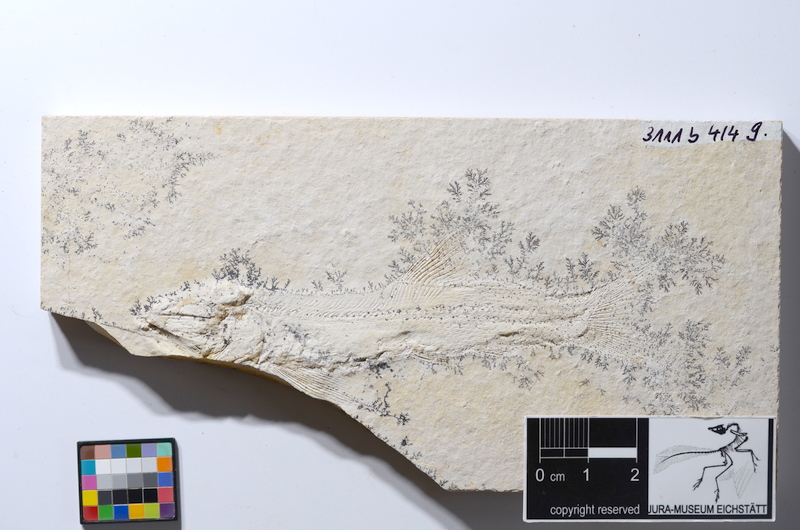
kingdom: Animalia
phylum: Chordata
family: Ophiopsiellidae
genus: Furo
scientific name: Furo
